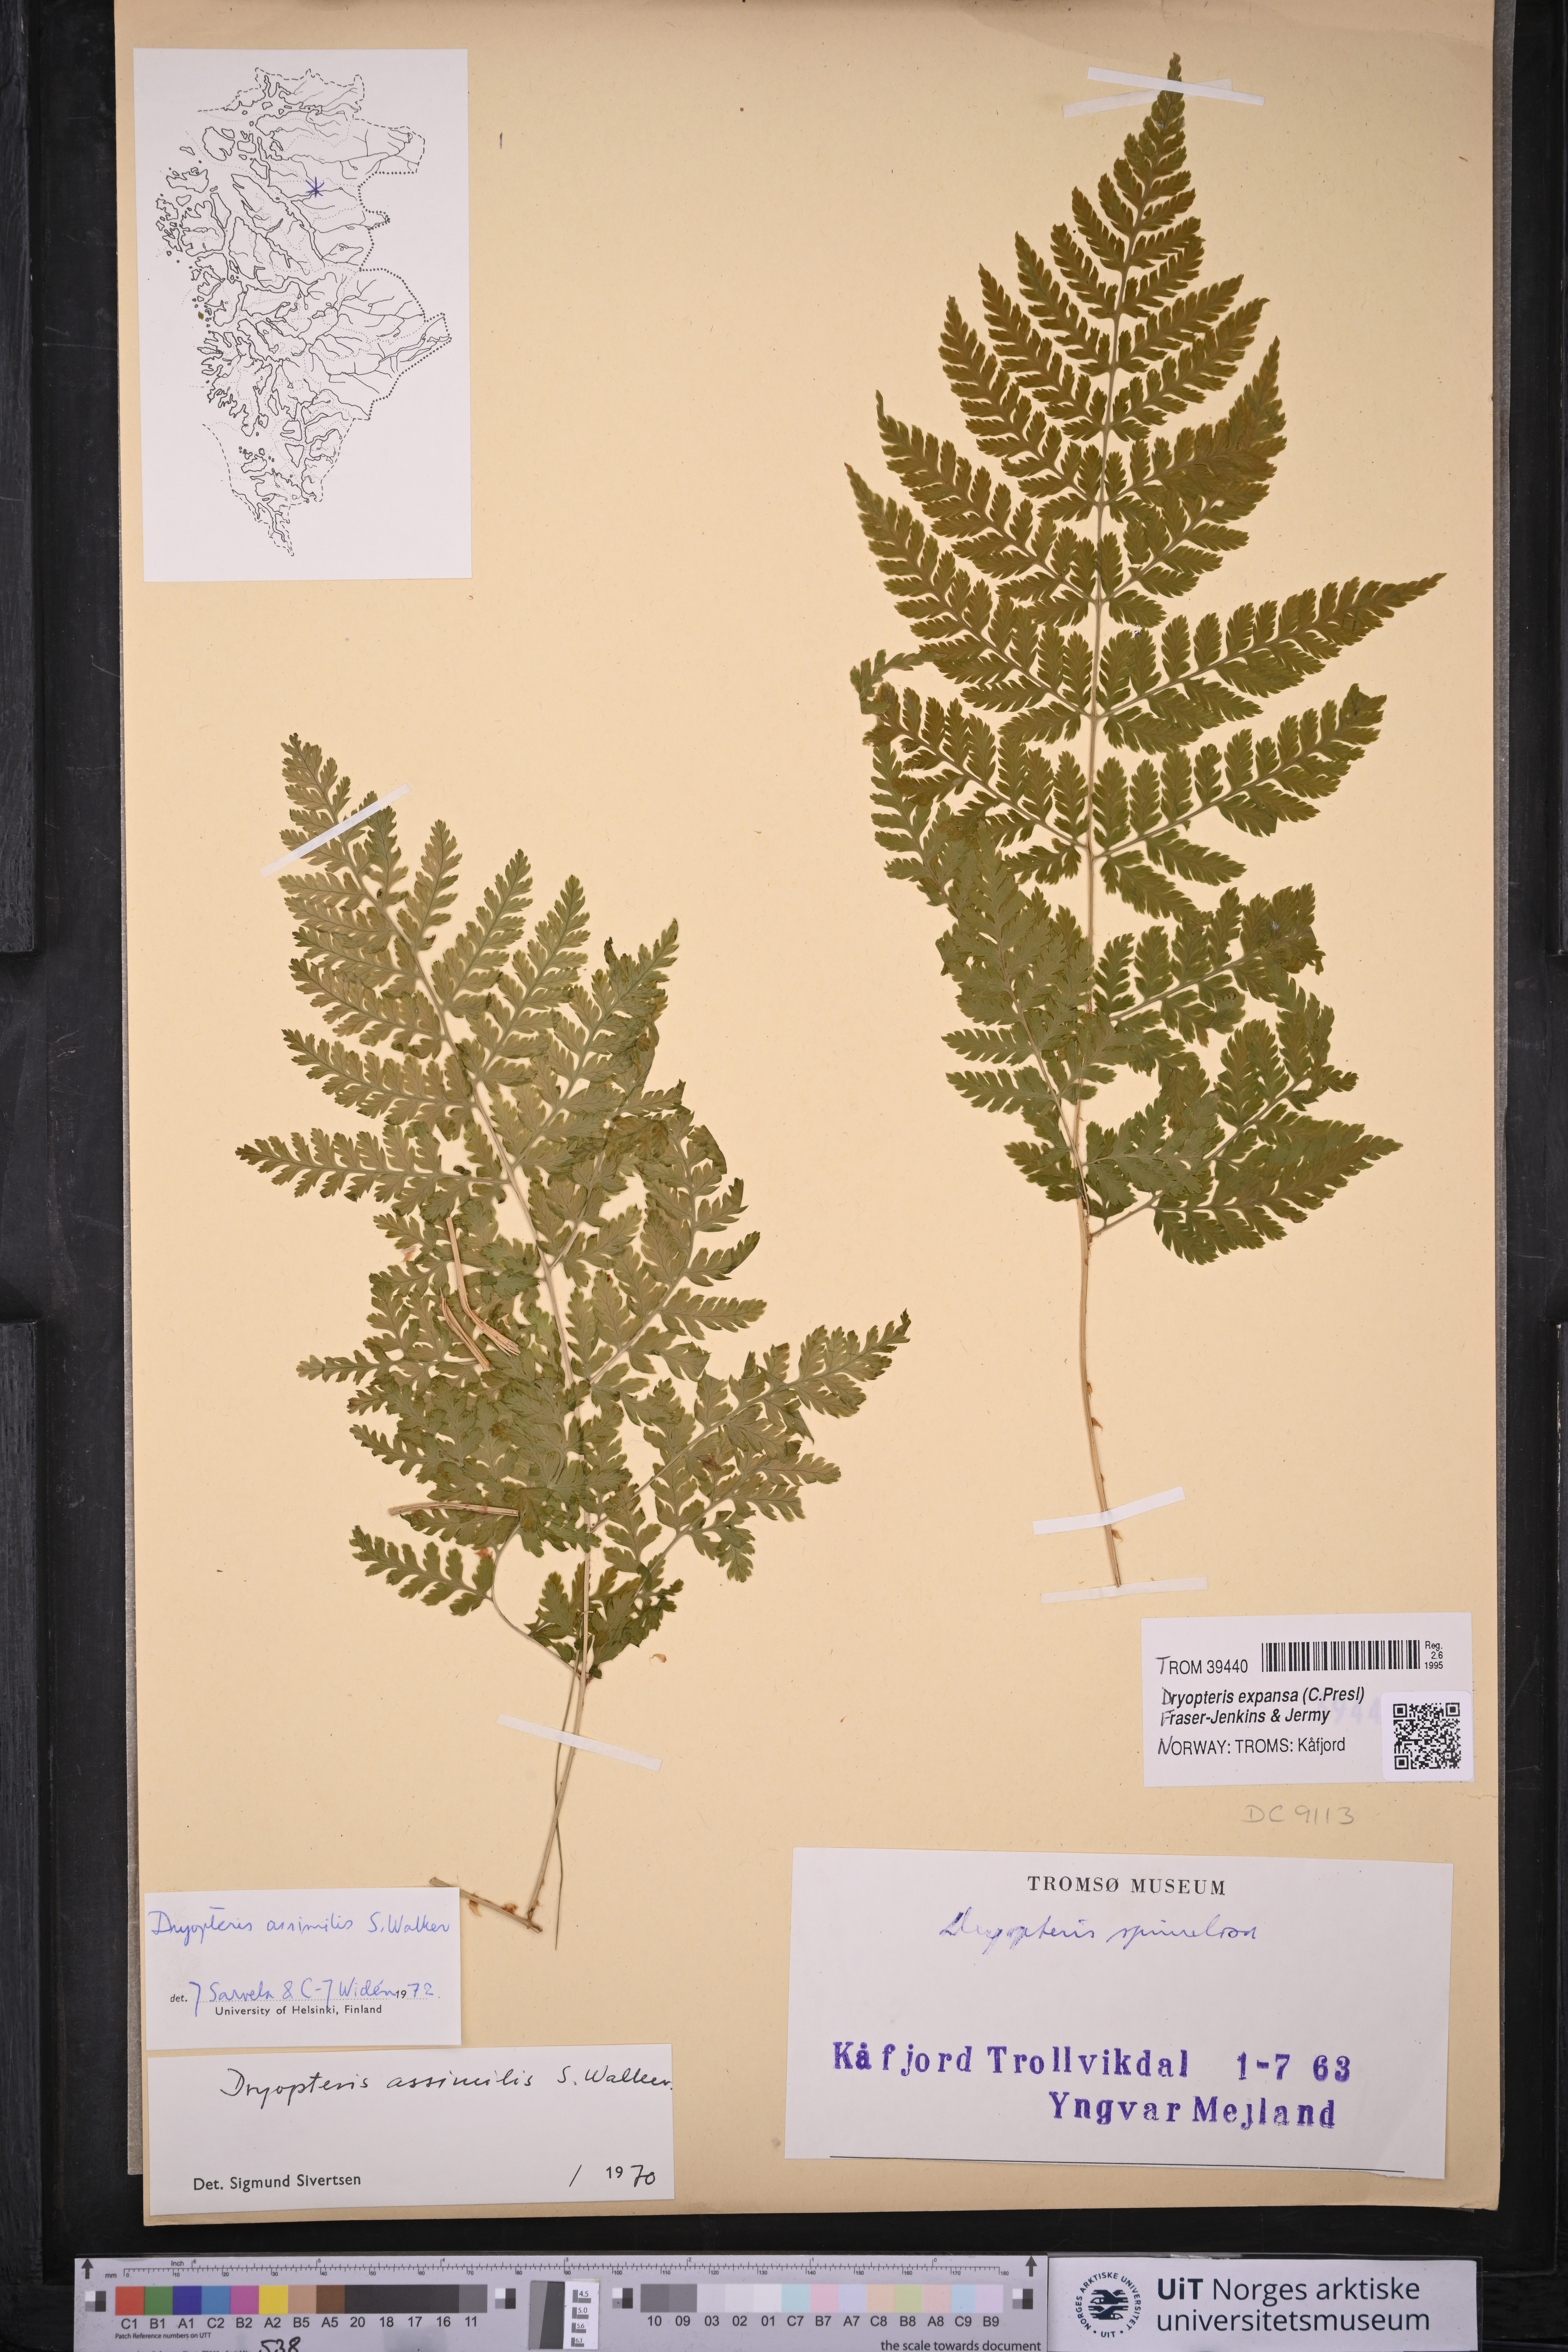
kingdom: Plantae
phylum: Tracheophyta
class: Polypodiopsida
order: Polypodiales
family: Dryopteridaceae
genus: Dryopteris
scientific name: Dryopteris expansa
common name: Northern buckler fern
